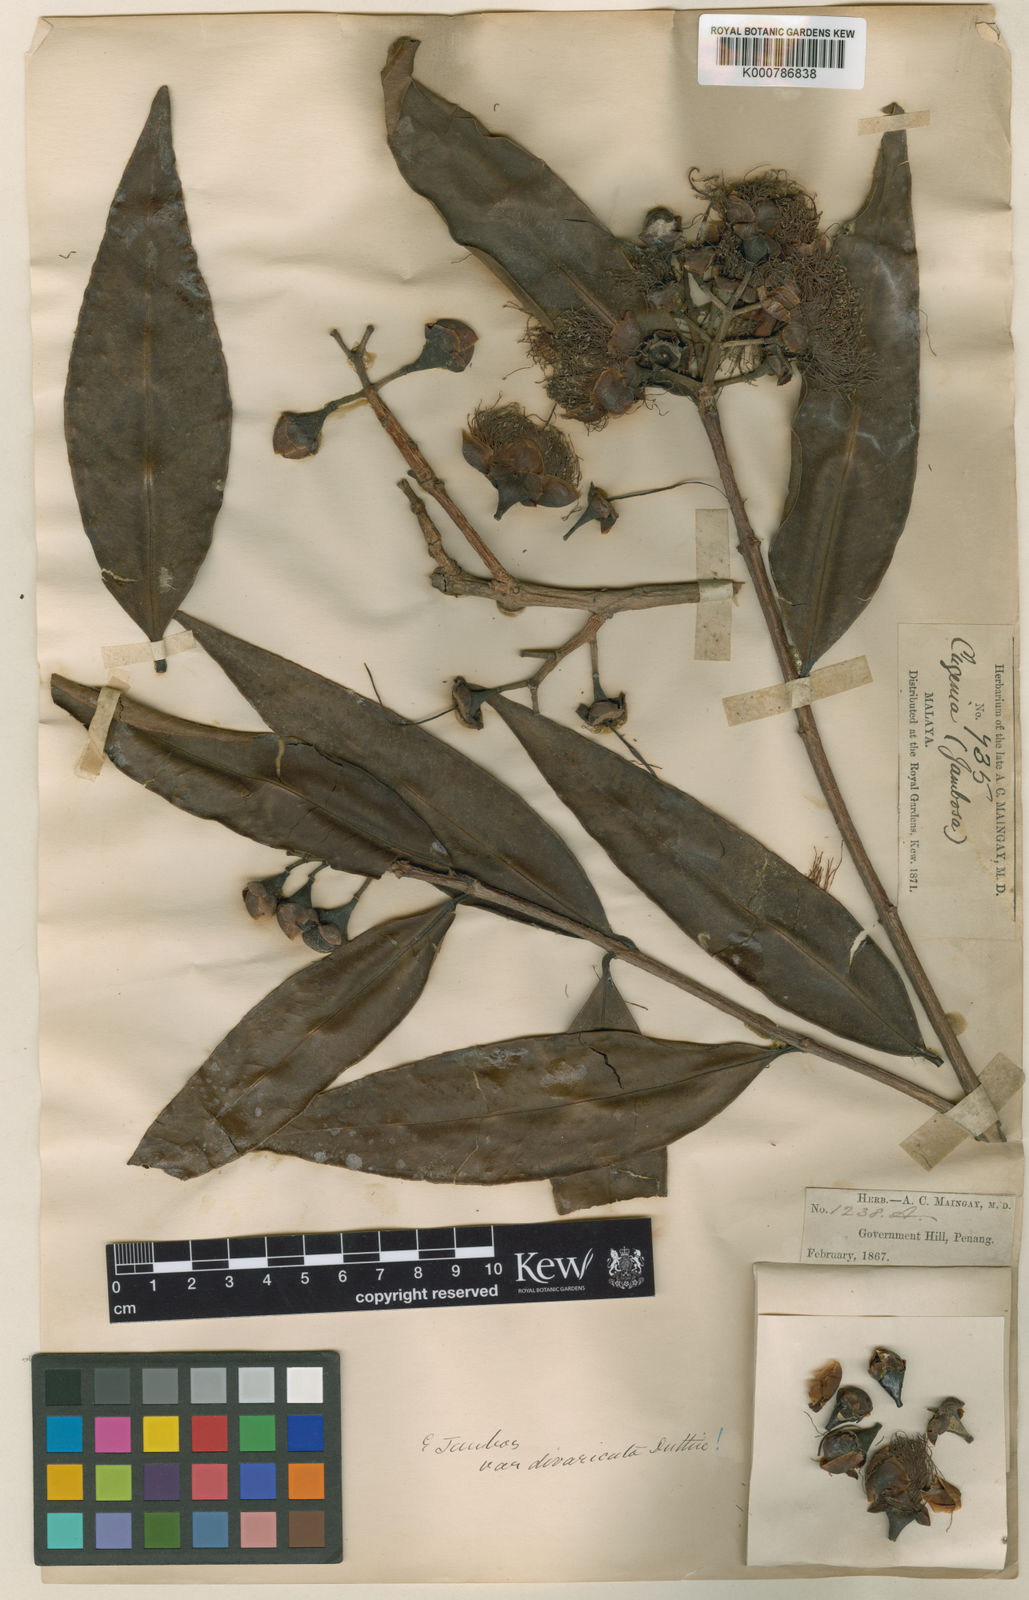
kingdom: Plantae
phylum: Tracheophyta
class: Magnoliopsida
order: Myrtales
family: Myrtaceae
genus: Syzygium
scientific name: Syzygium jambos
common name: Malabar plum
